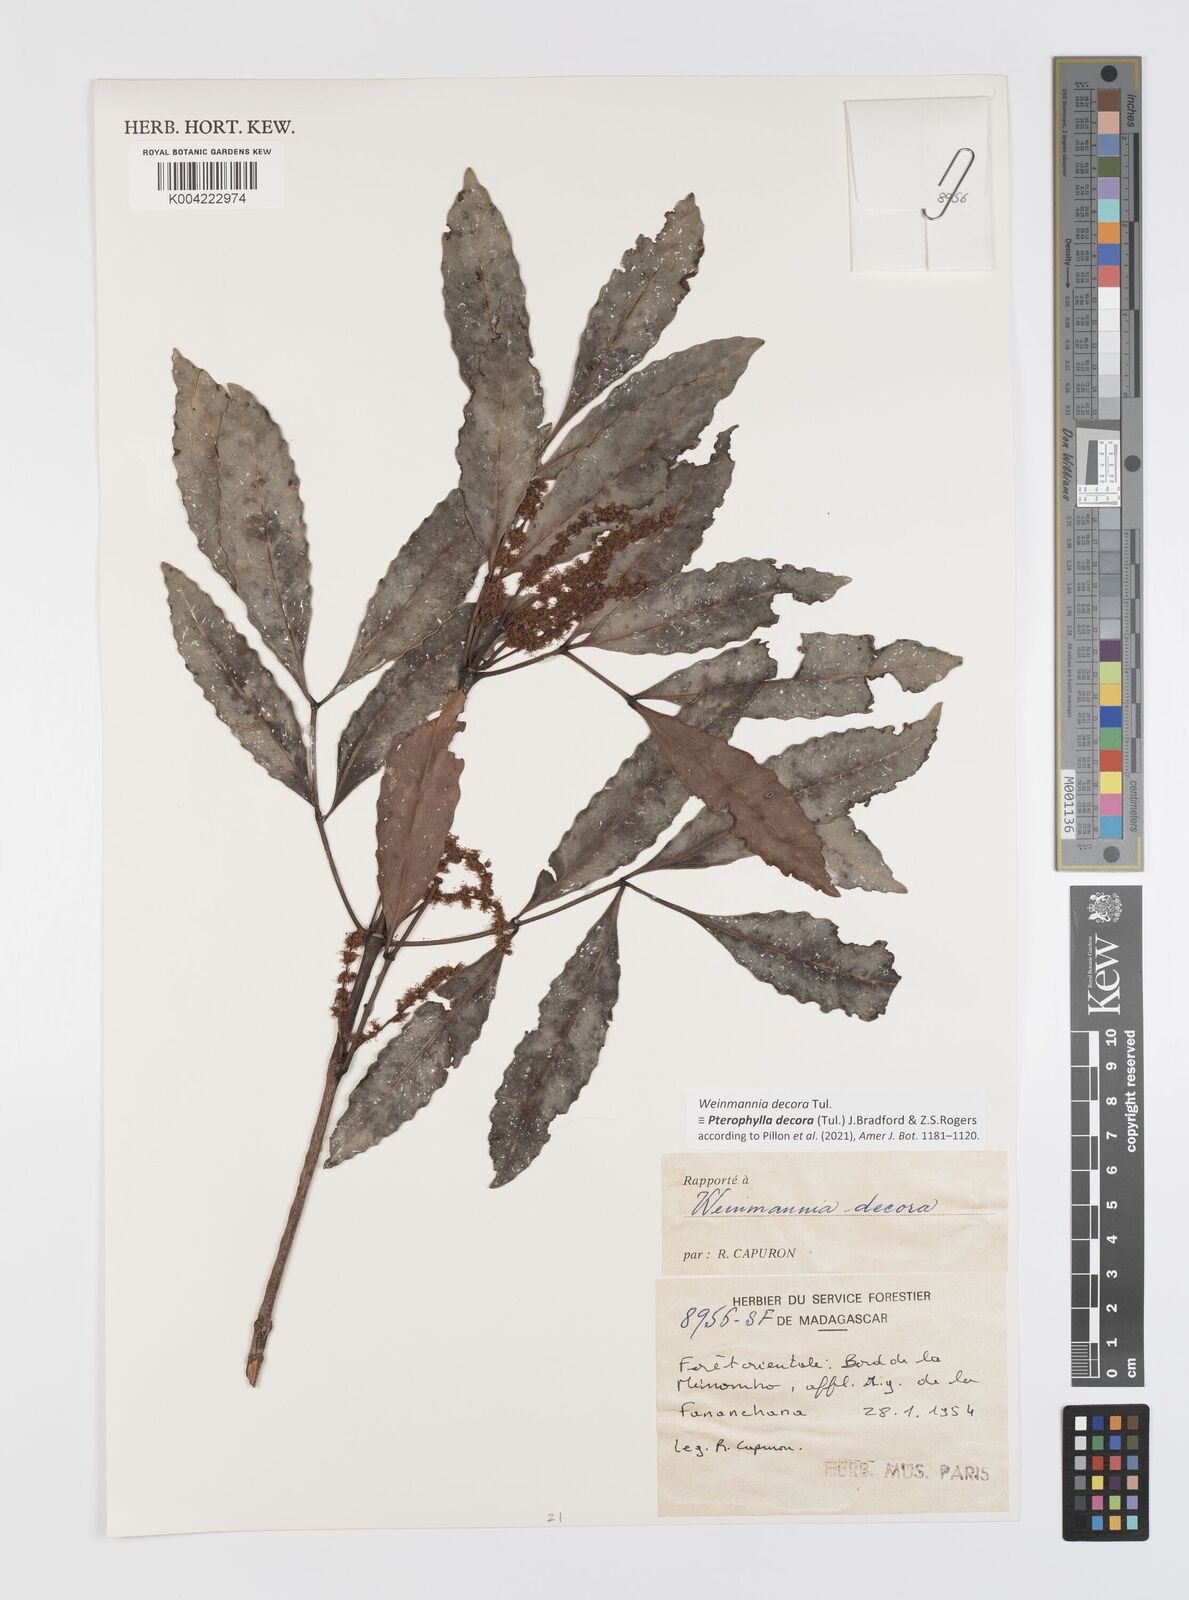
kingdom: Plantae
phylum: Tracheophyta
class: Magnoliopsida
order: Oxalidales
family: Cunoniaceae
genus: Pterophylla
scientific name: Pterophylla decora
